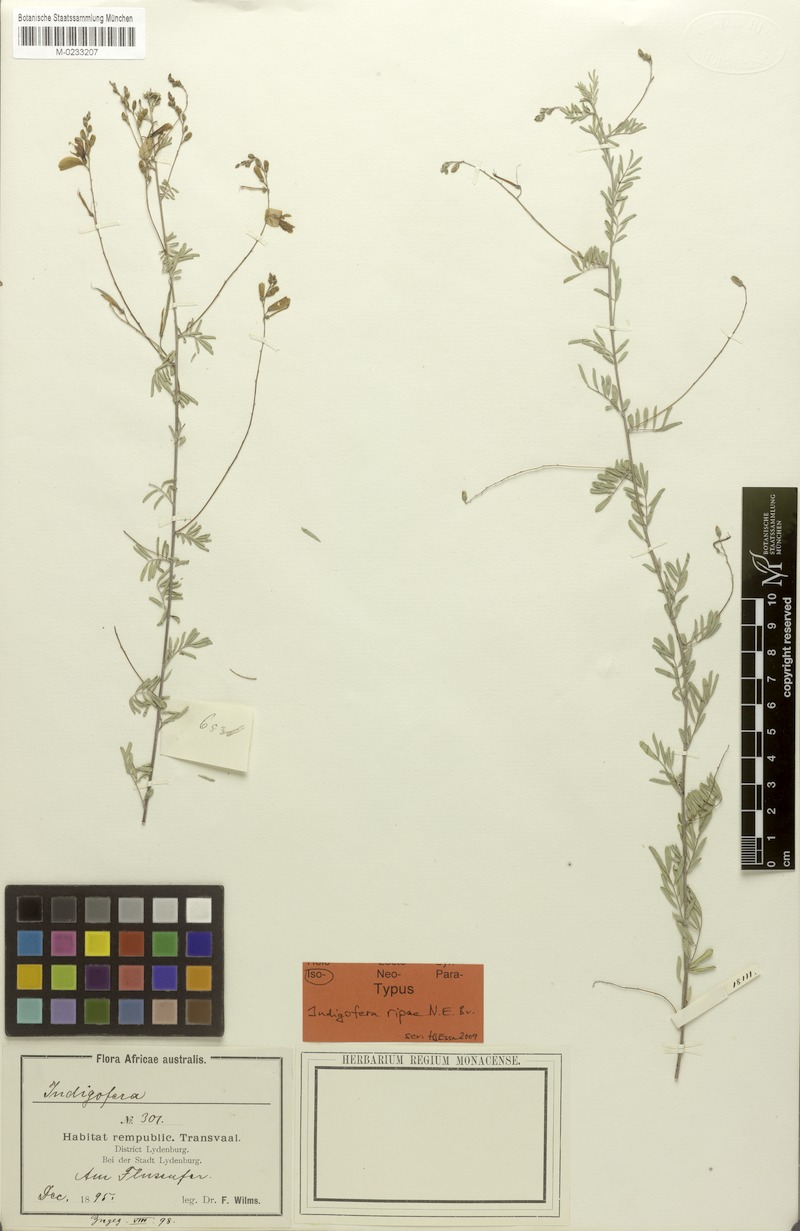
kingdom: Plantae
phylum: Tracheophyta
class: Magnoliopsida
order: Fabales
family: Fabaceae
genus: Indigofera
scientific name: Indigofera ripae
